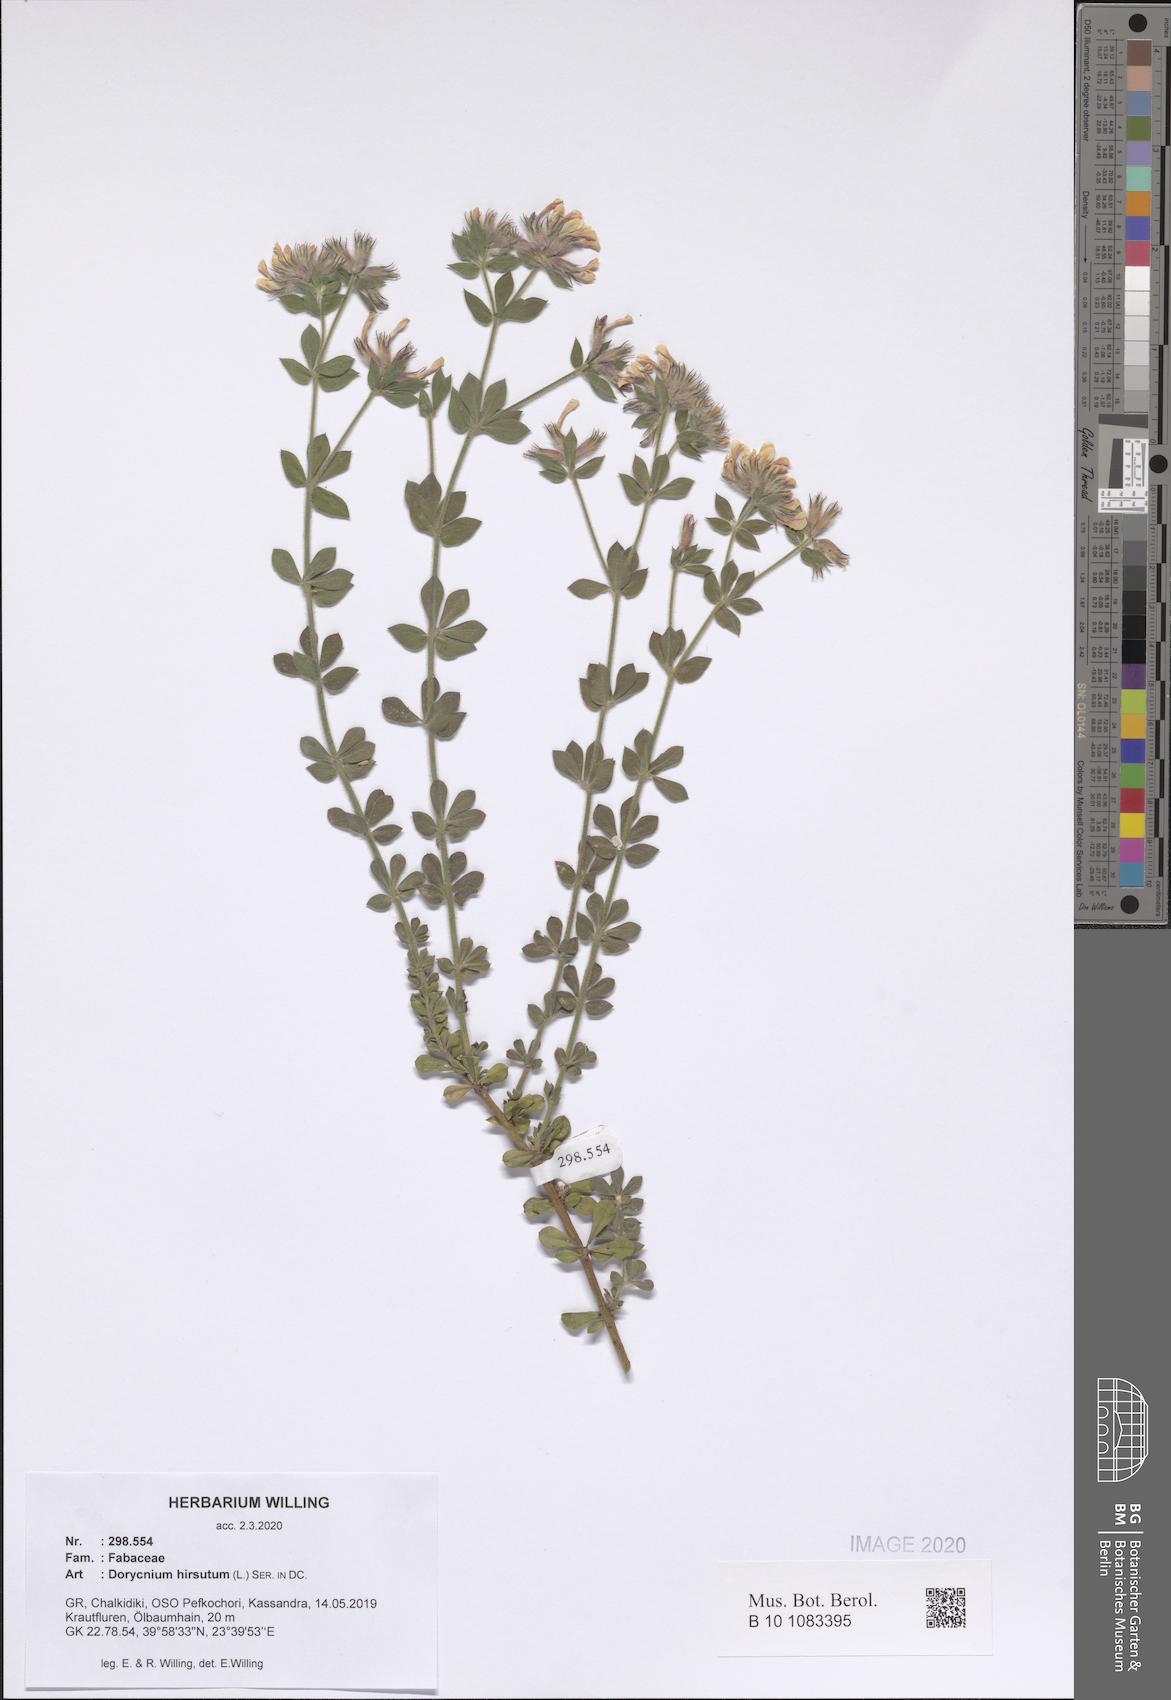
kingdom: Plantae
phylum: Tracheophyta
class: Magnoliopsida
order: Fabales
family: Fabaceae
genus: Lotus
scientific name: Lotus hirsutus
